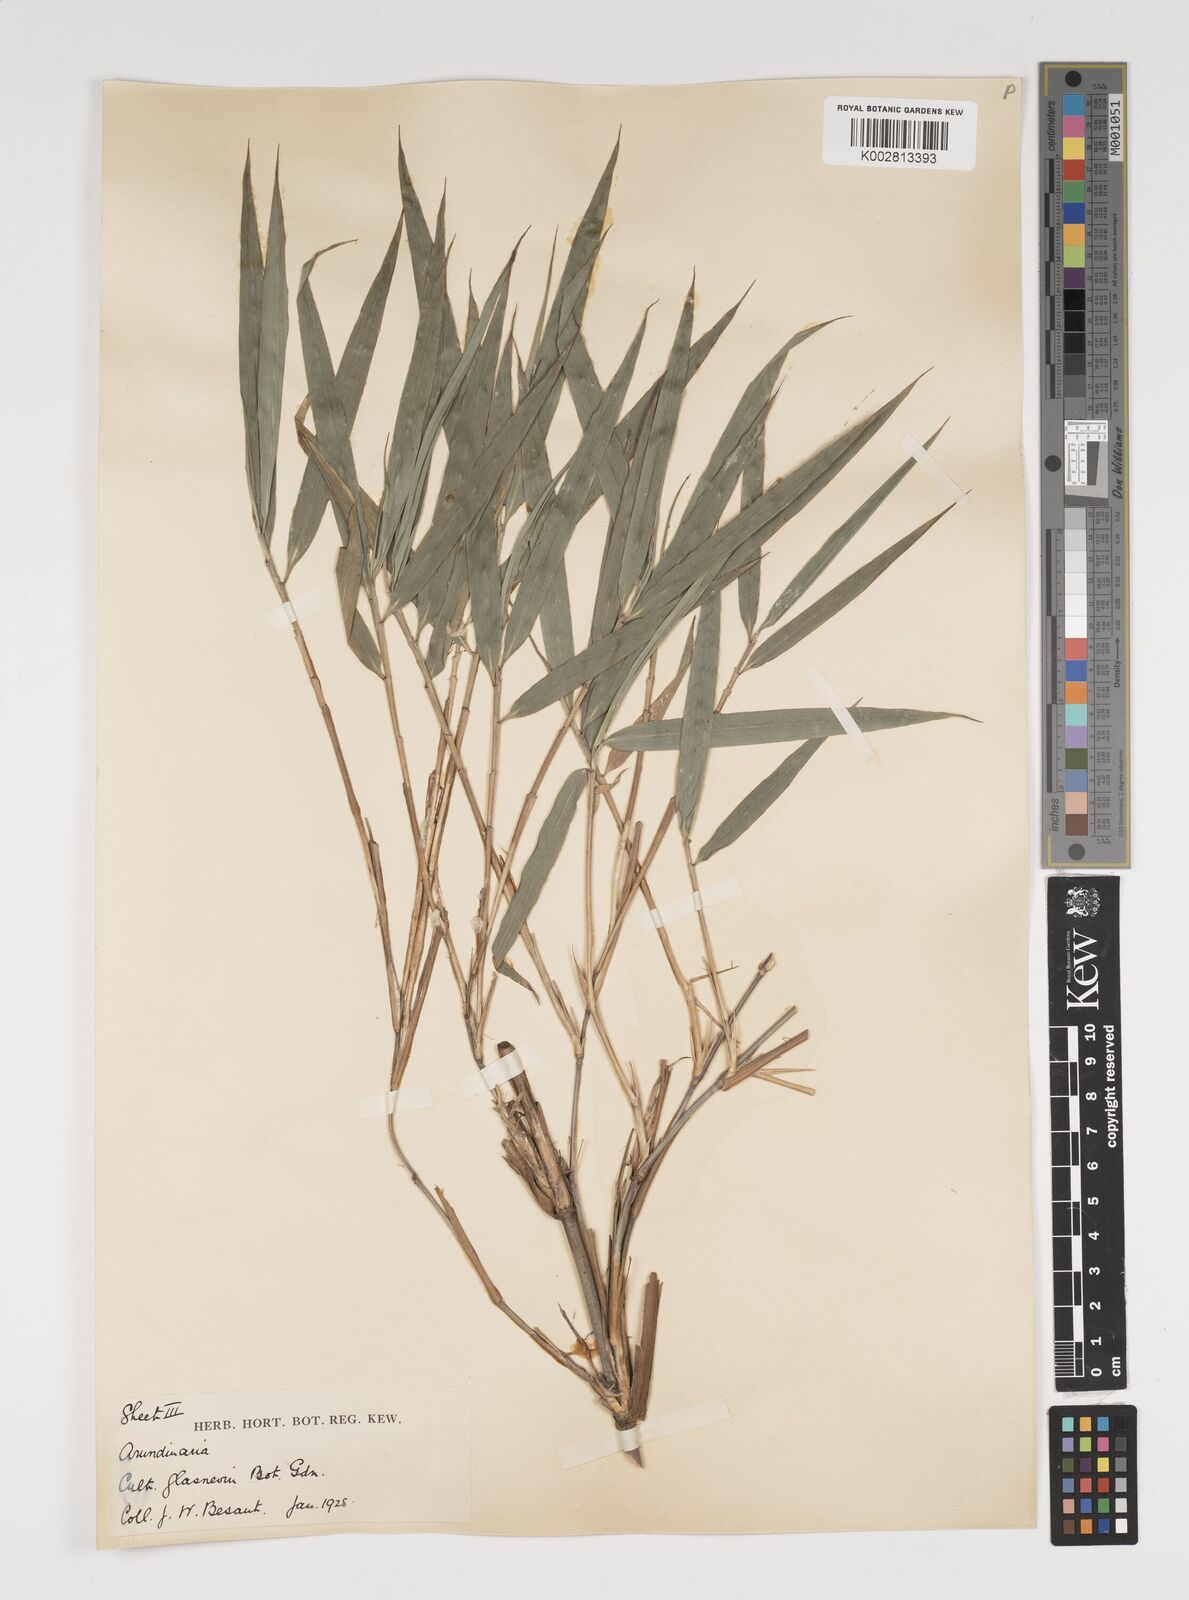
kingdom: Plantae
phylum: Tracheophyta
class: Liliopsida
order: Poales
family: Poaceae
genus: Thamnocalamus
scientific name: Thamnocalamus spathiflorus
